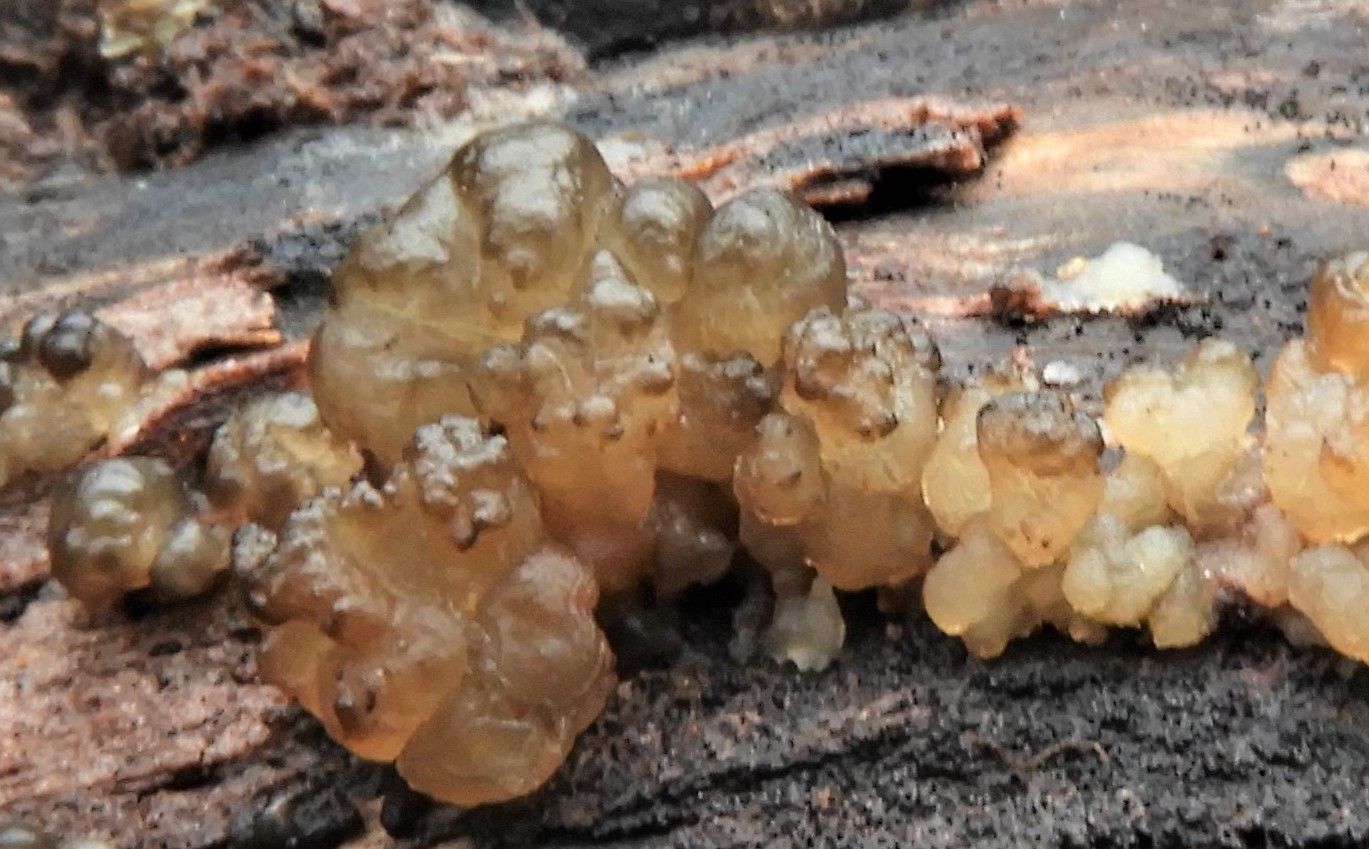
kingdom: Fungi
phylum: Basidiomycota
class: Tremellomycetes
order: Tremellales
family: Exidiaceae
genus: Exidia
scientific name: Exidia
